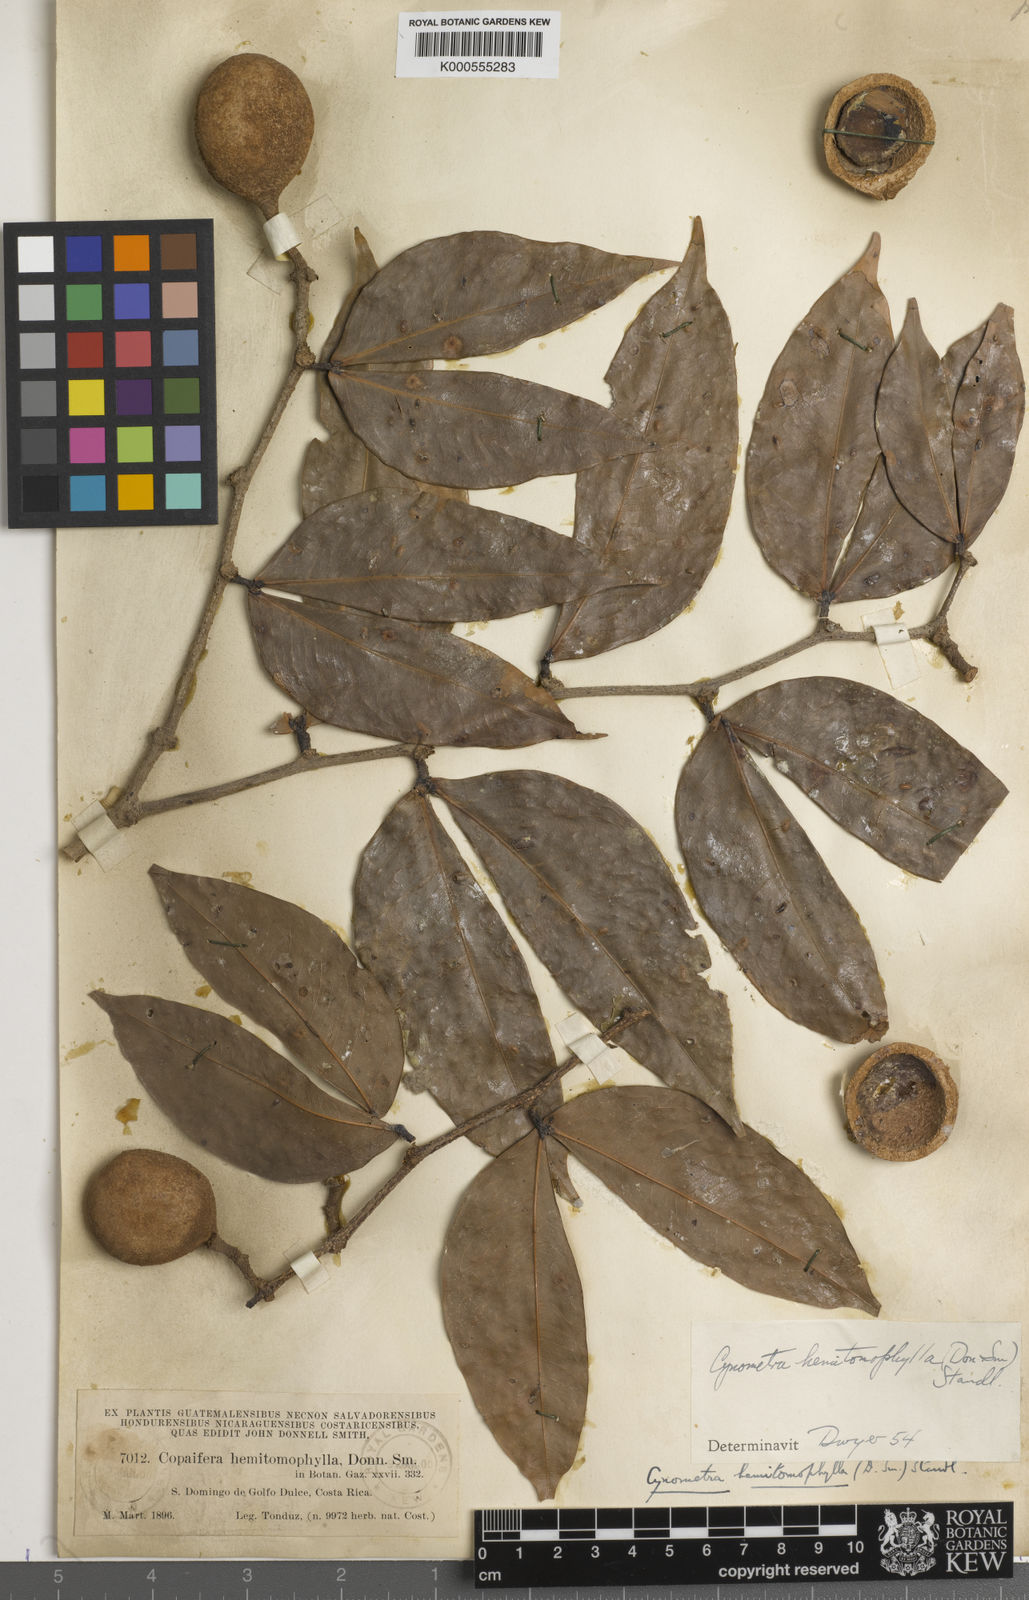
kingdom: Plantae
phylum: Tracheophyta
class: Magnoliopsida
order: Fabales
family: Fabaceae
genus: Cynometra
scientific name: Cynometra hemitomophylla
